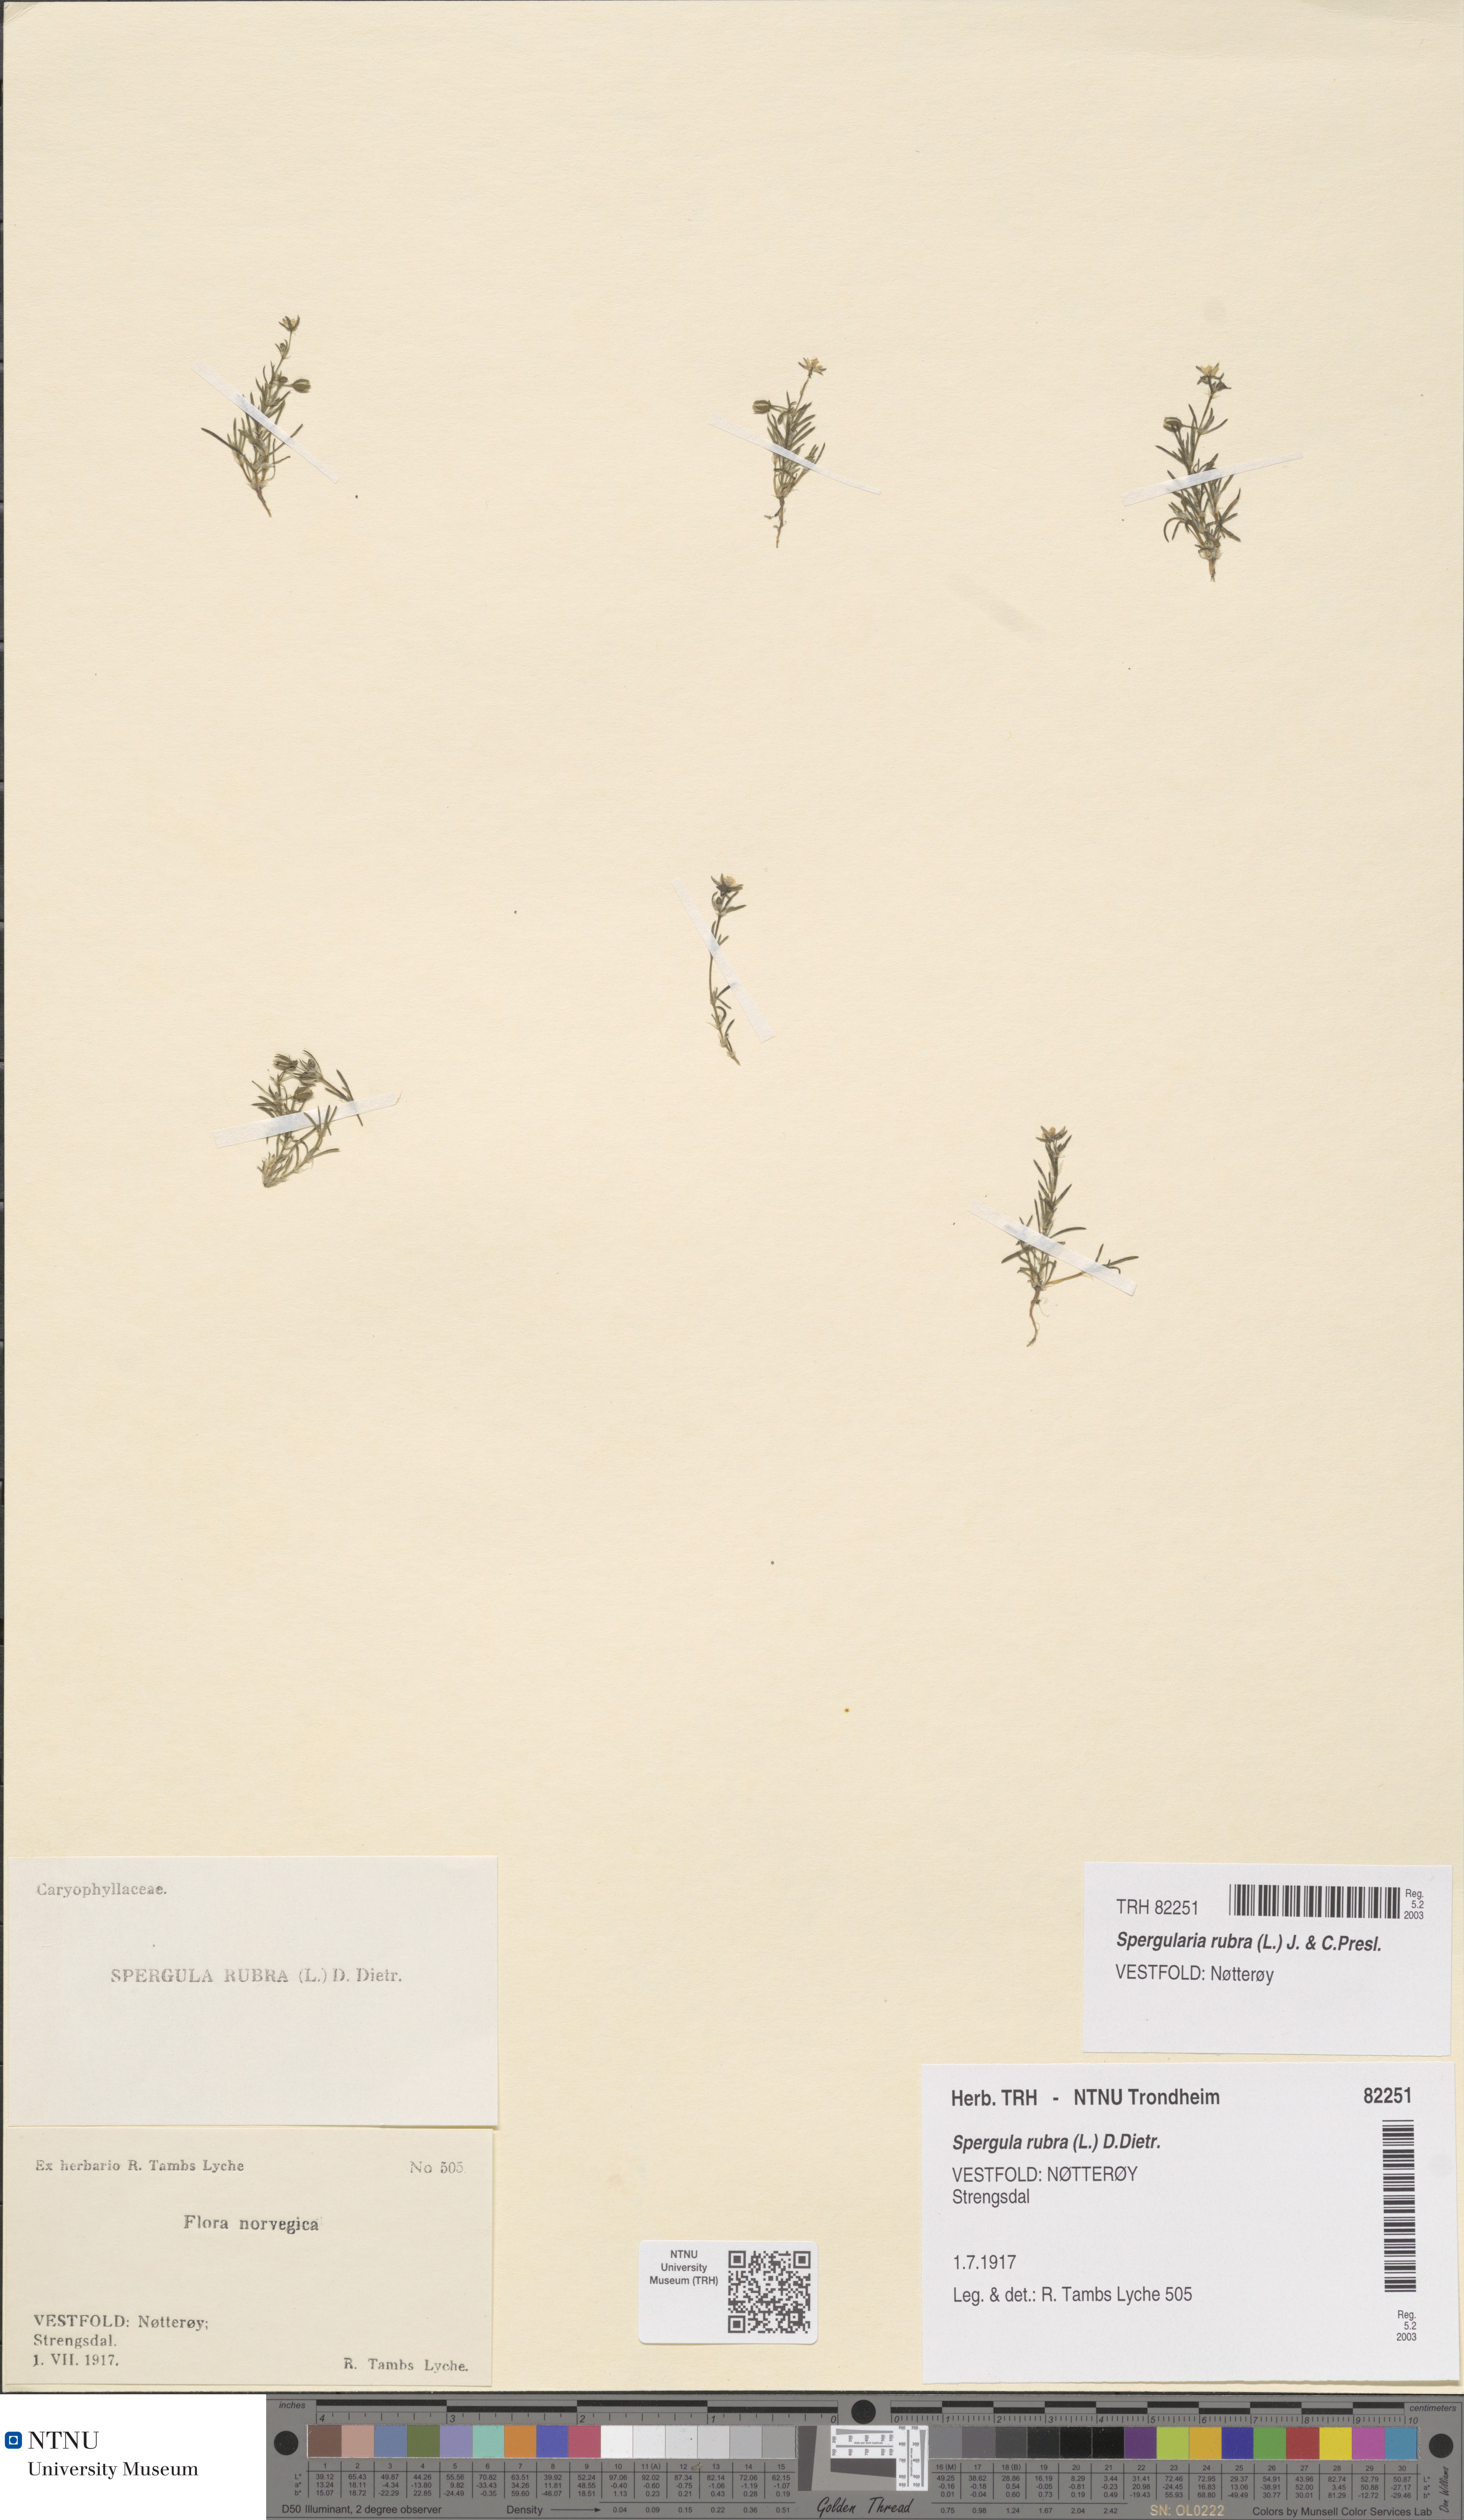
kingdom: Plantae
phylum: Tracheophyta
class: Magnoliopsida
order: Caryophyllales
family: Caryophyllaceae
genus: Spergularia
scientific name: Spergularia rubra
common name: Red sand-spurrey
